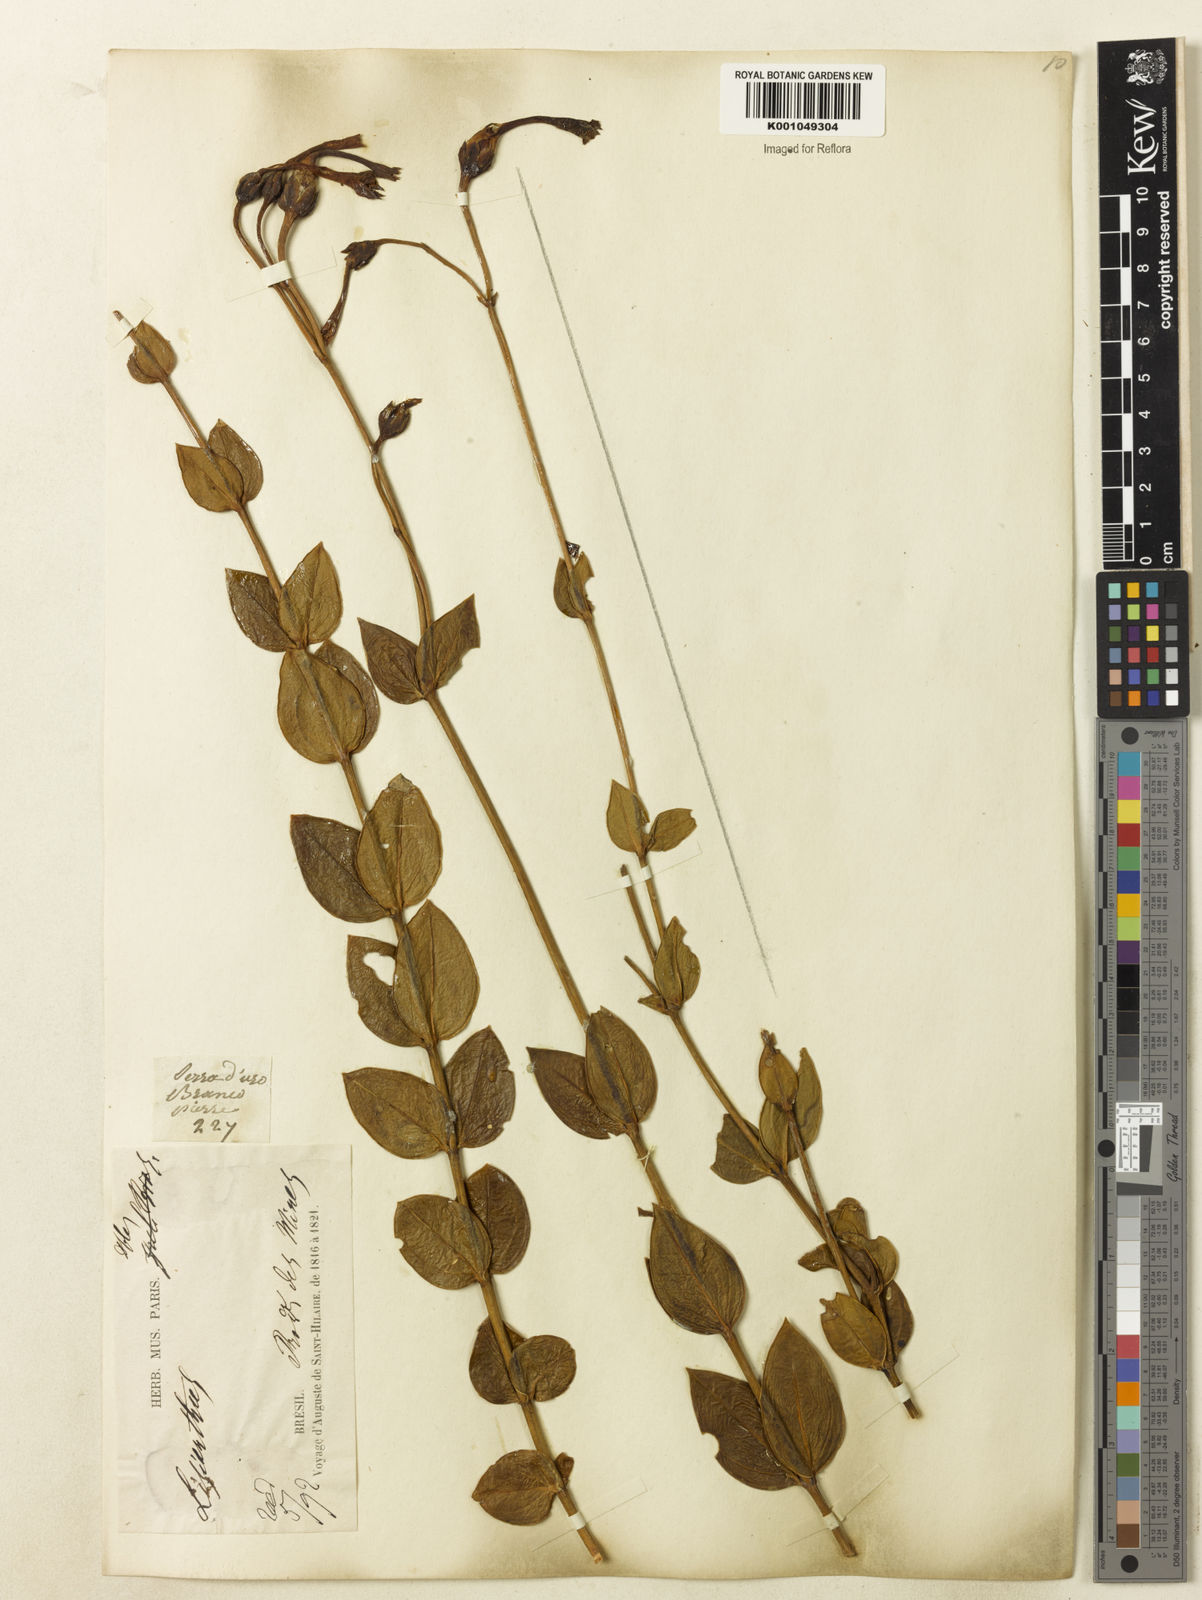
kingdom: Plantae
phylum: Tracheophyta
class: Magnoliopsida
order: Gentianales
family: Gentianaceae
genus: Calolisianthus
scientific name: Calolisianthus pendulus
